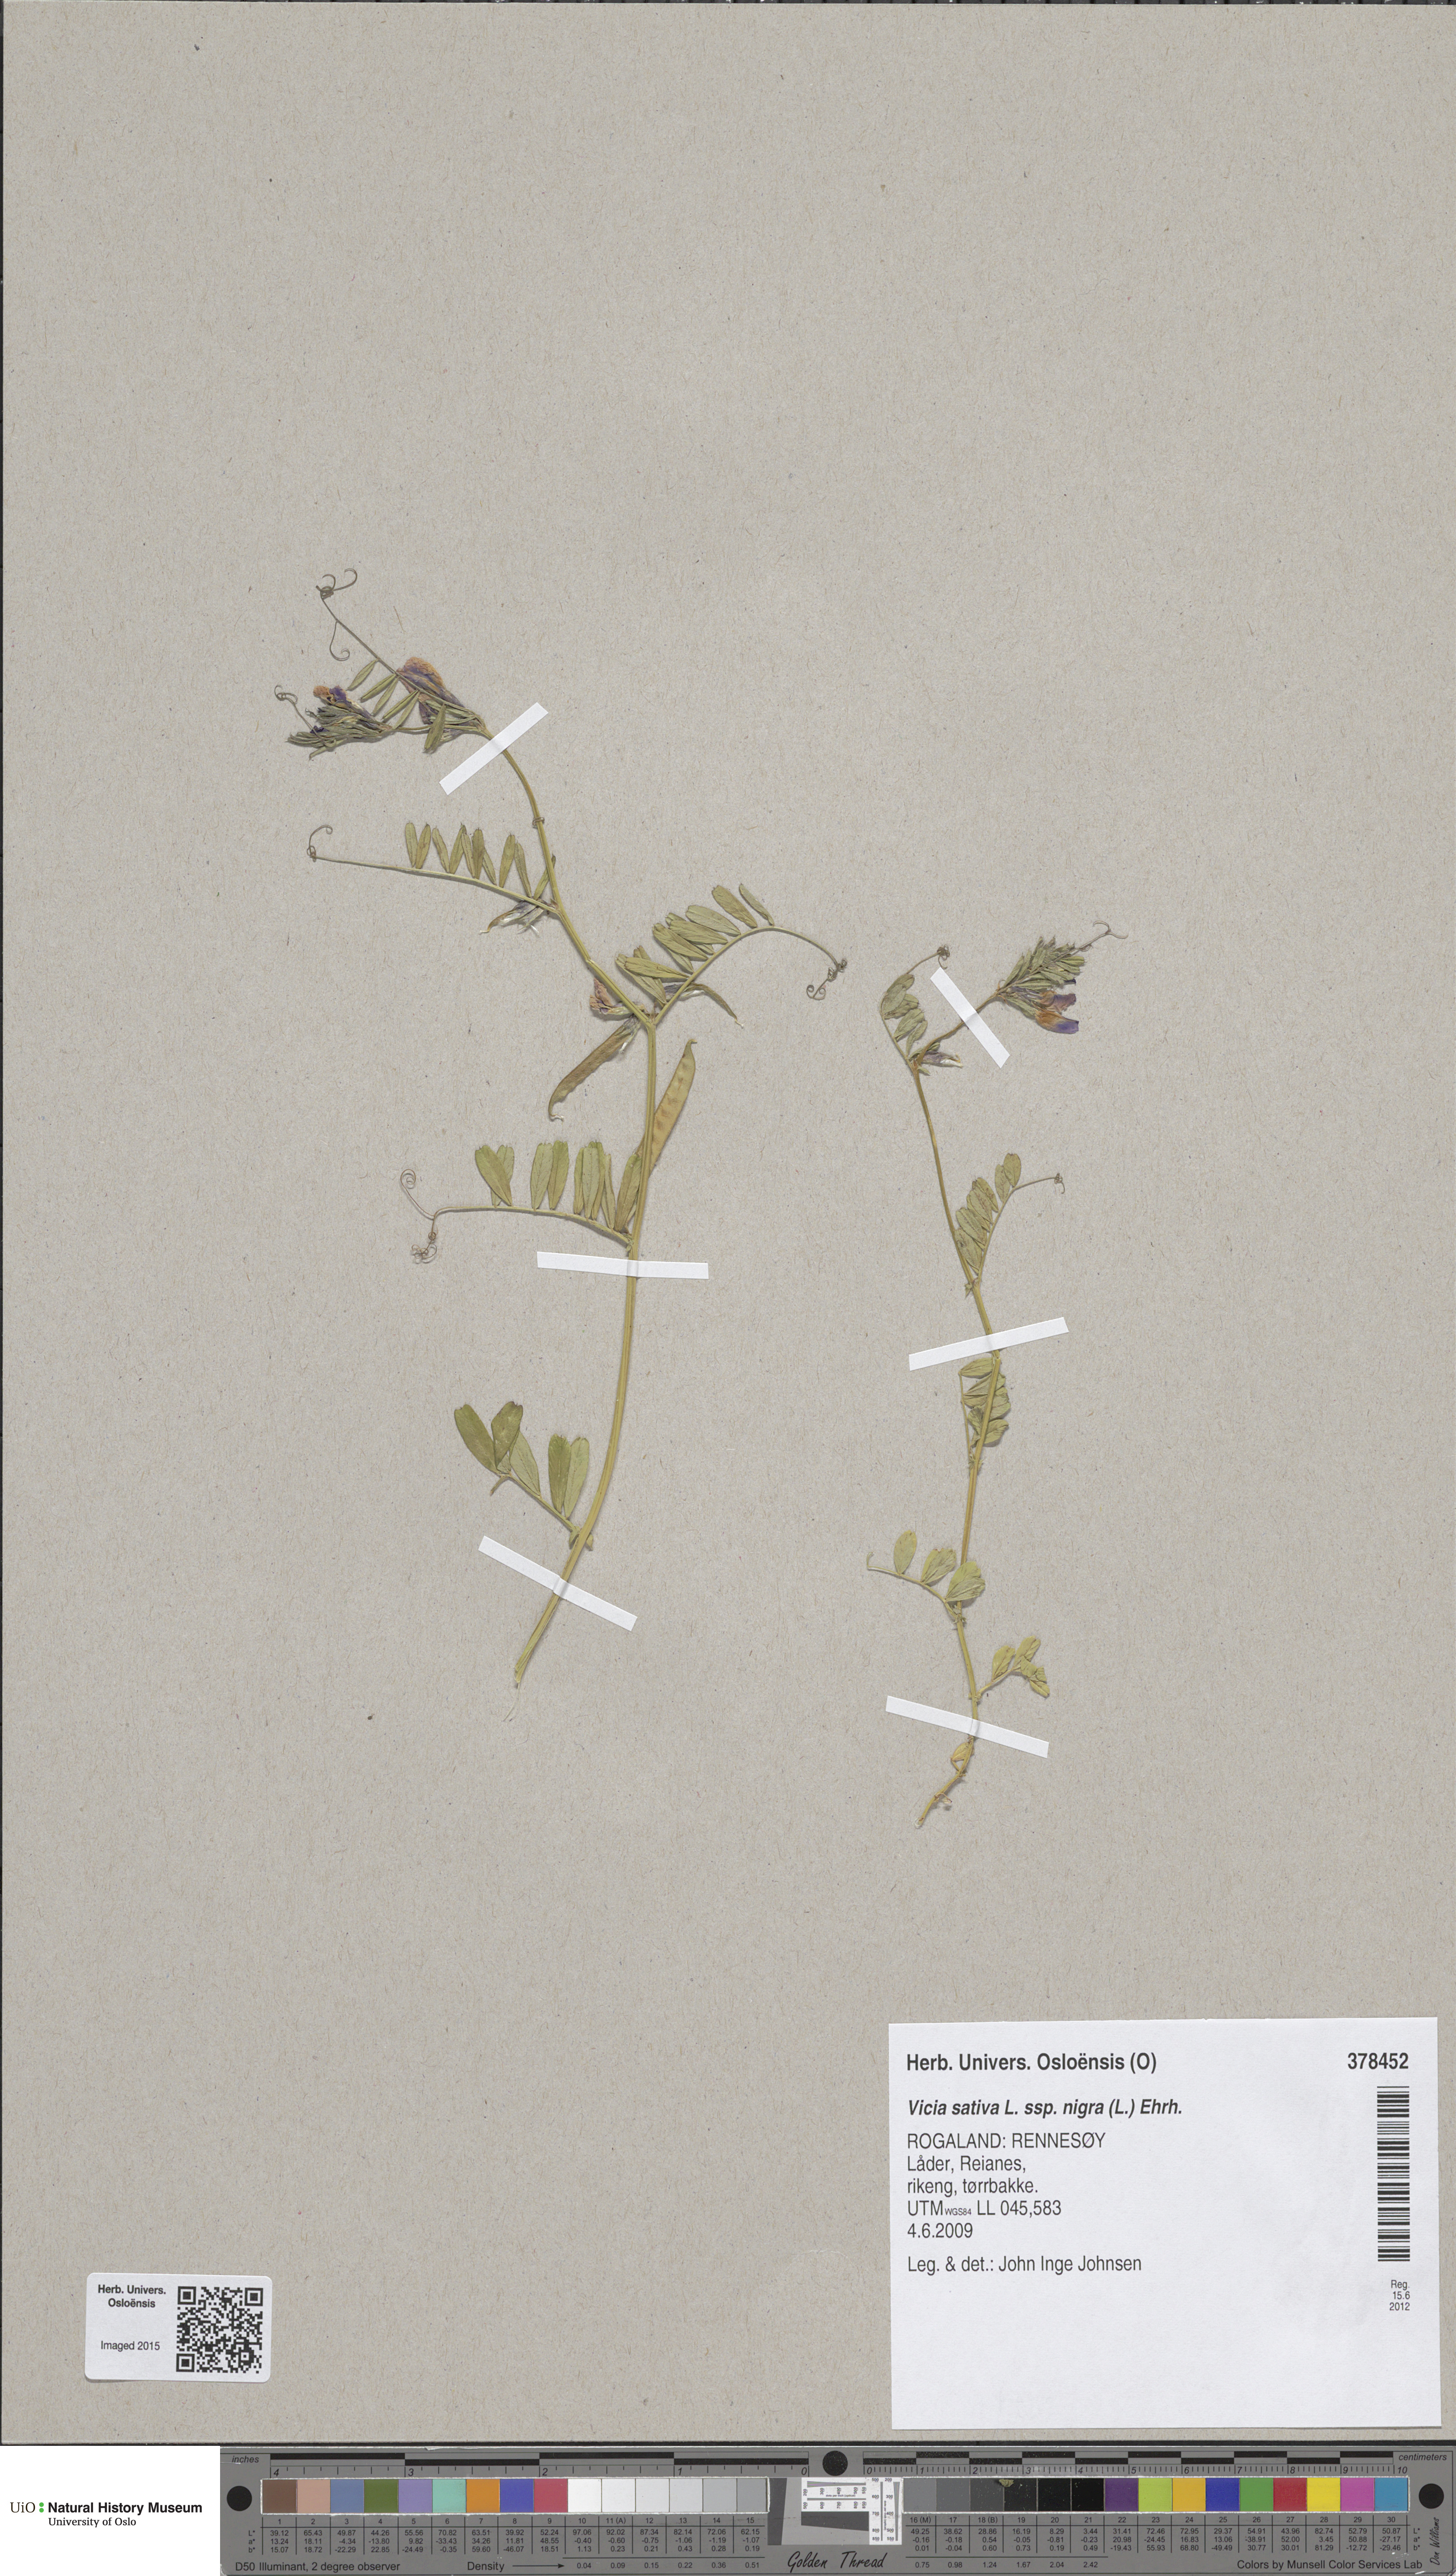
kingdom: Plantae
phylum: Tracheophyta
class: Magnoliopsida
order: Fabales
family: Fabaceae
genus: Vicia
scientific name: Vicia sativa
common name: Garden vetch
